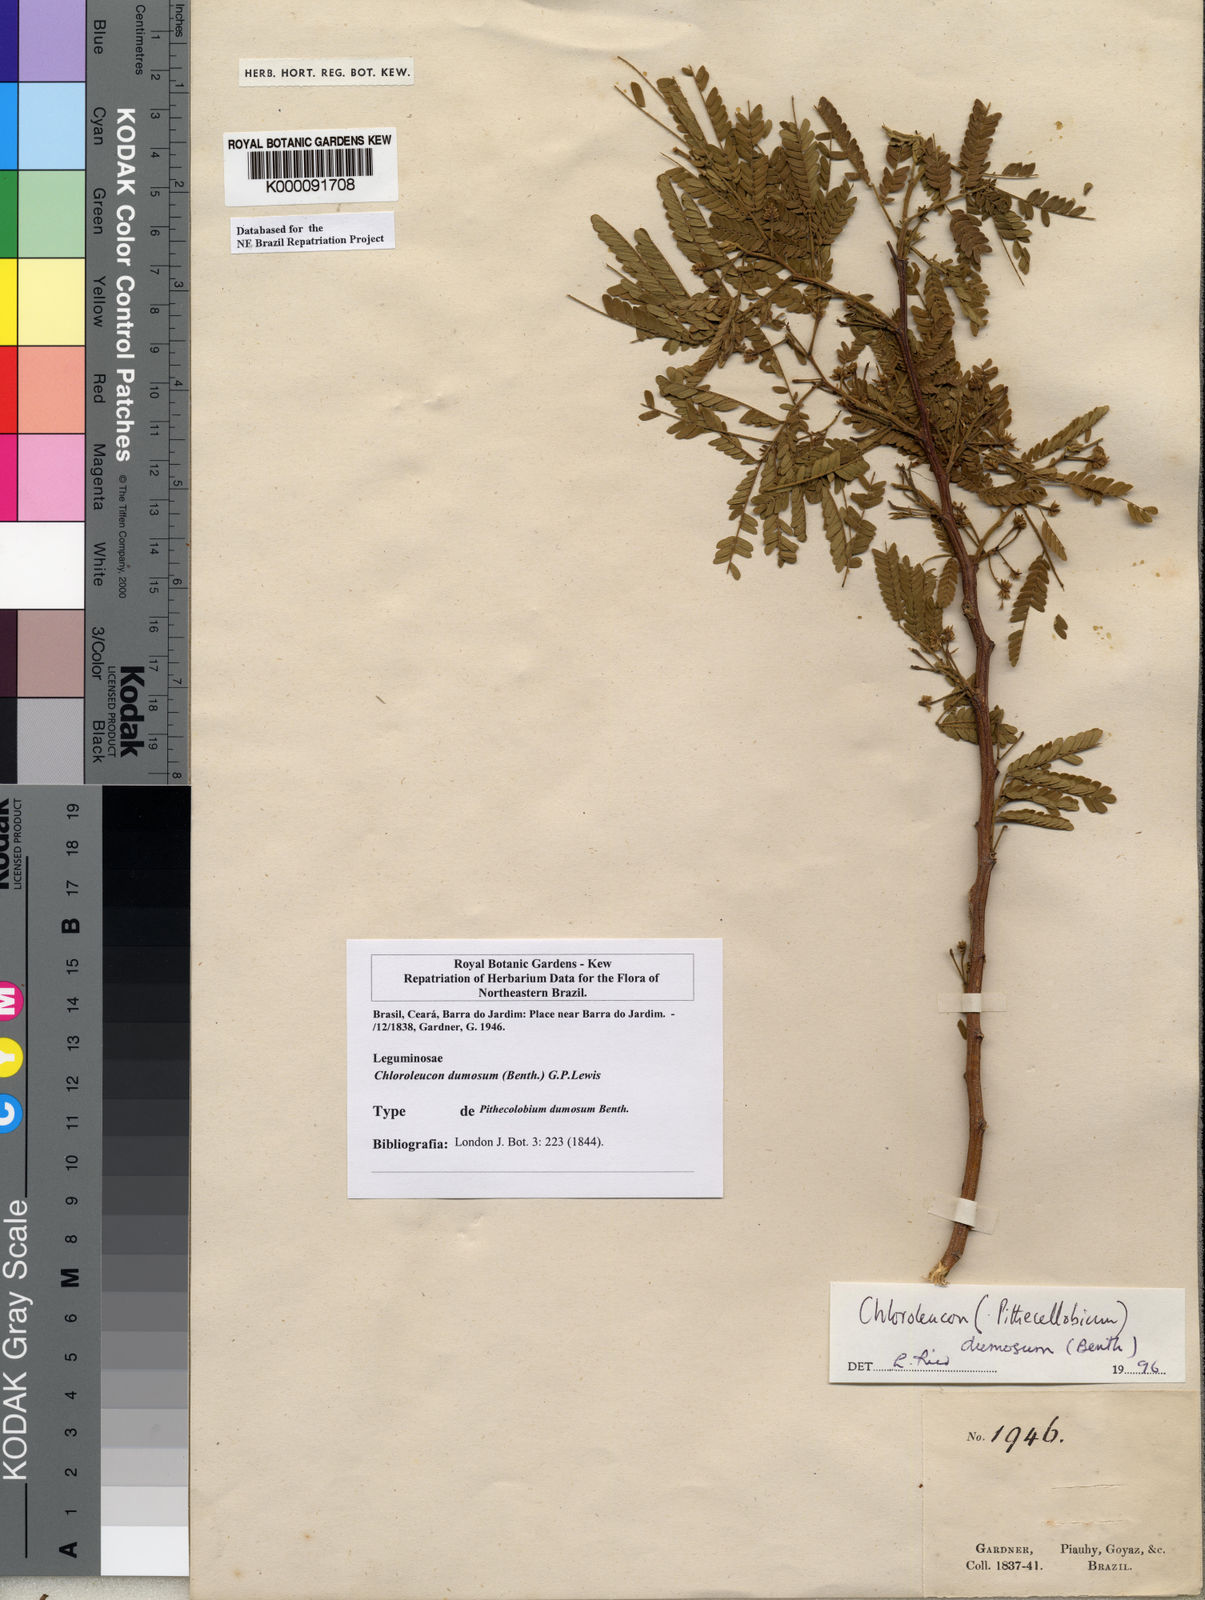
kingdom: Plantae
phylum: Tracheophyta
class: Magnoliopsida
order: Fabales
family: Fabaceae
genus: Chloroleucon
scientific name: Chloroleucon dumosum
